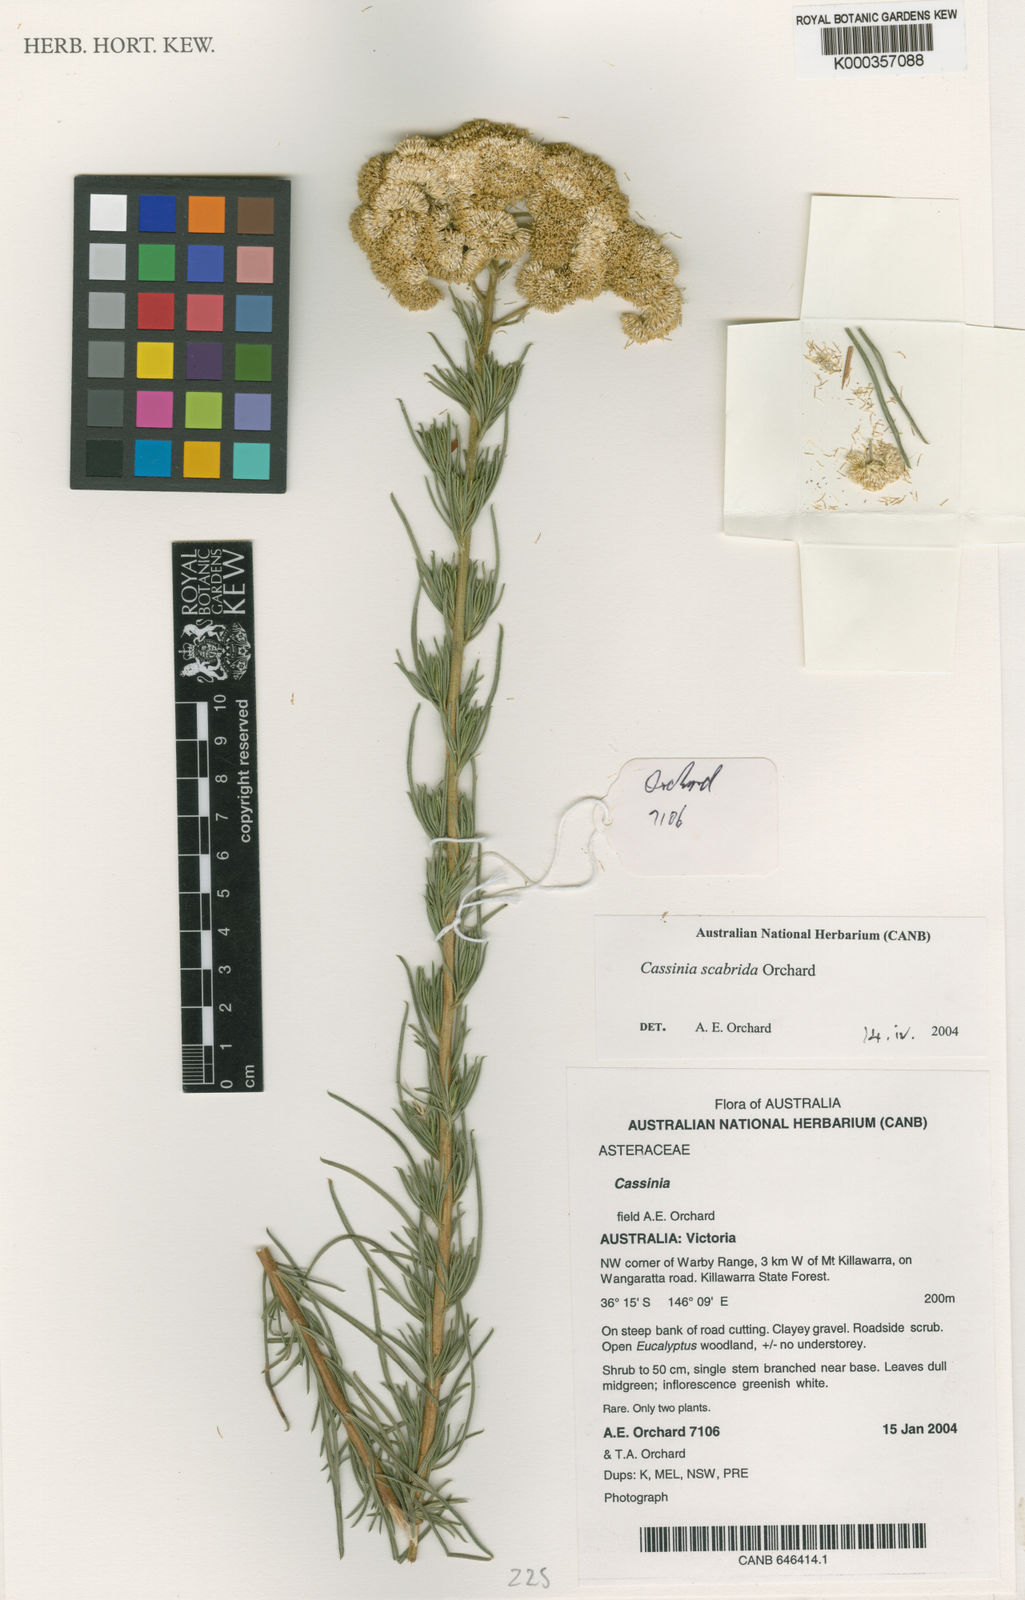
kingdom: Plantae
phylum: Tracheophyta
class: Magnoliopsida
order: Asterales
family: Asteraceae
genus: Cassinia
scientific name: Cassinia scabrida
